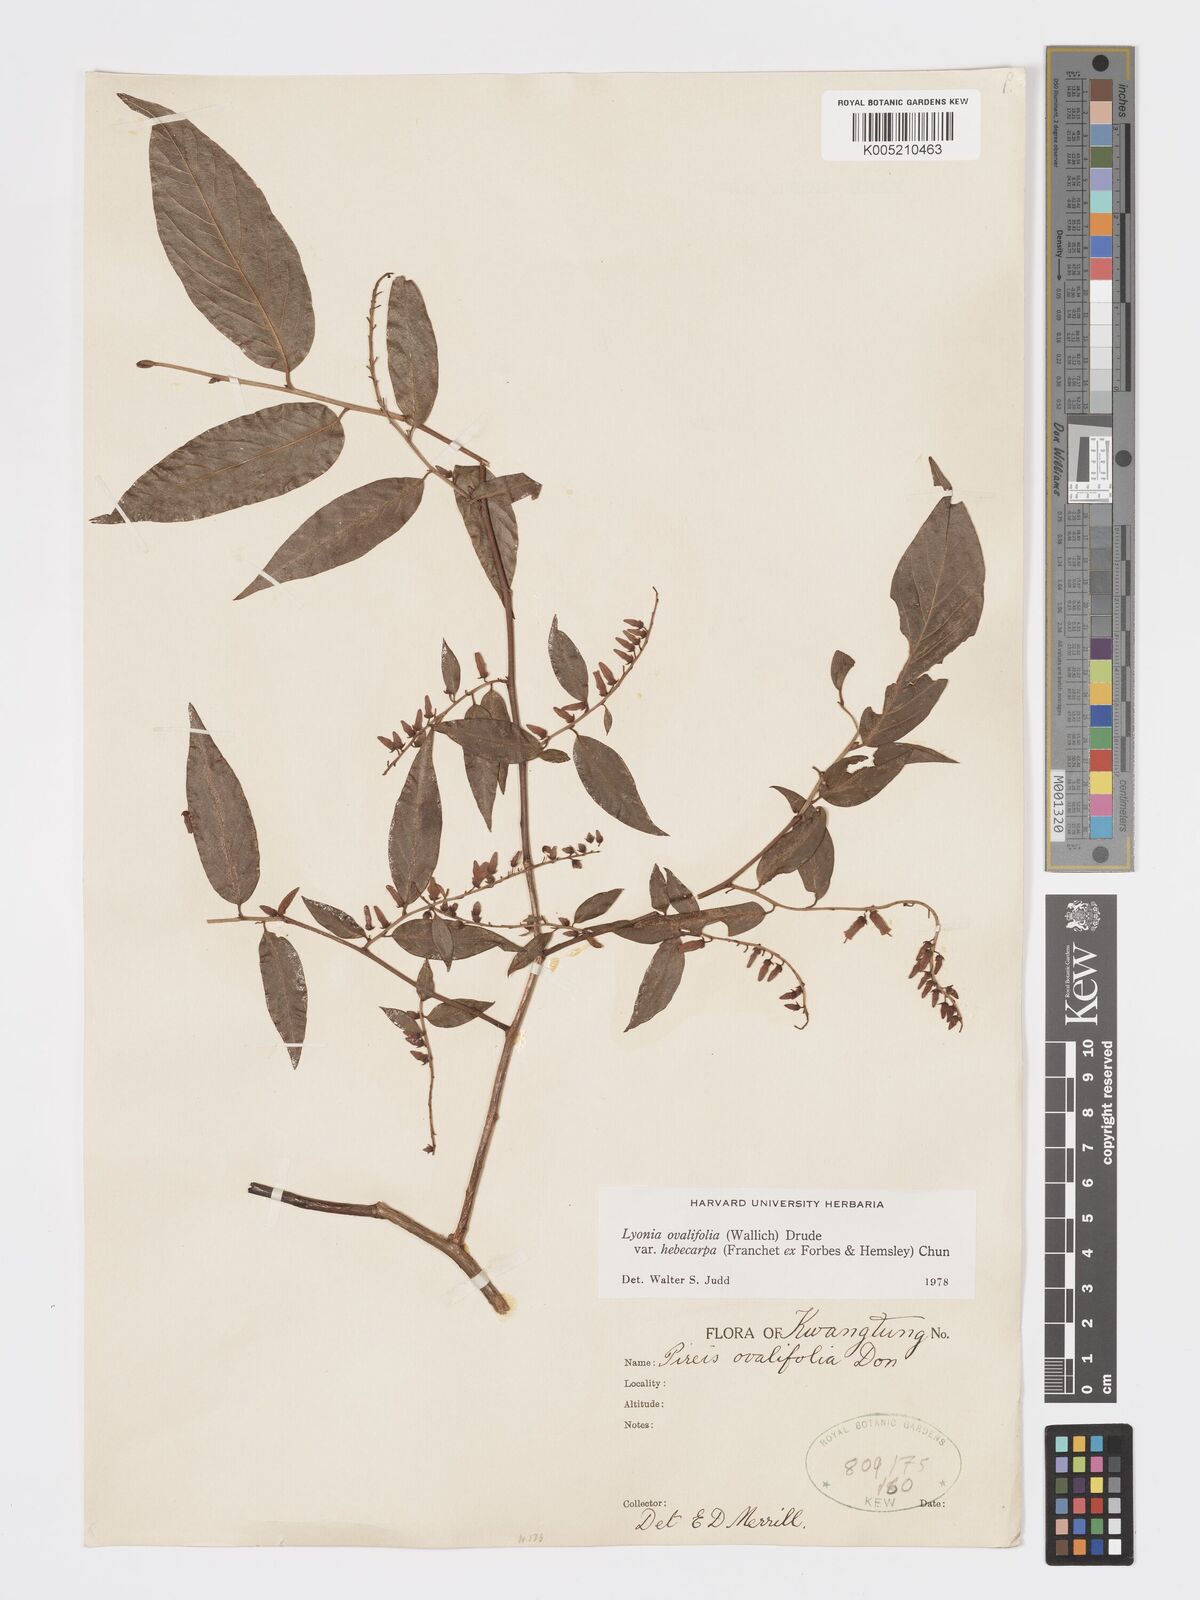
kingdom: Plantae
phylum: Tracheophyta
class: Magnoliopsida
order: Ericales
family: Ericaceae
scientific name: Ericaceae
